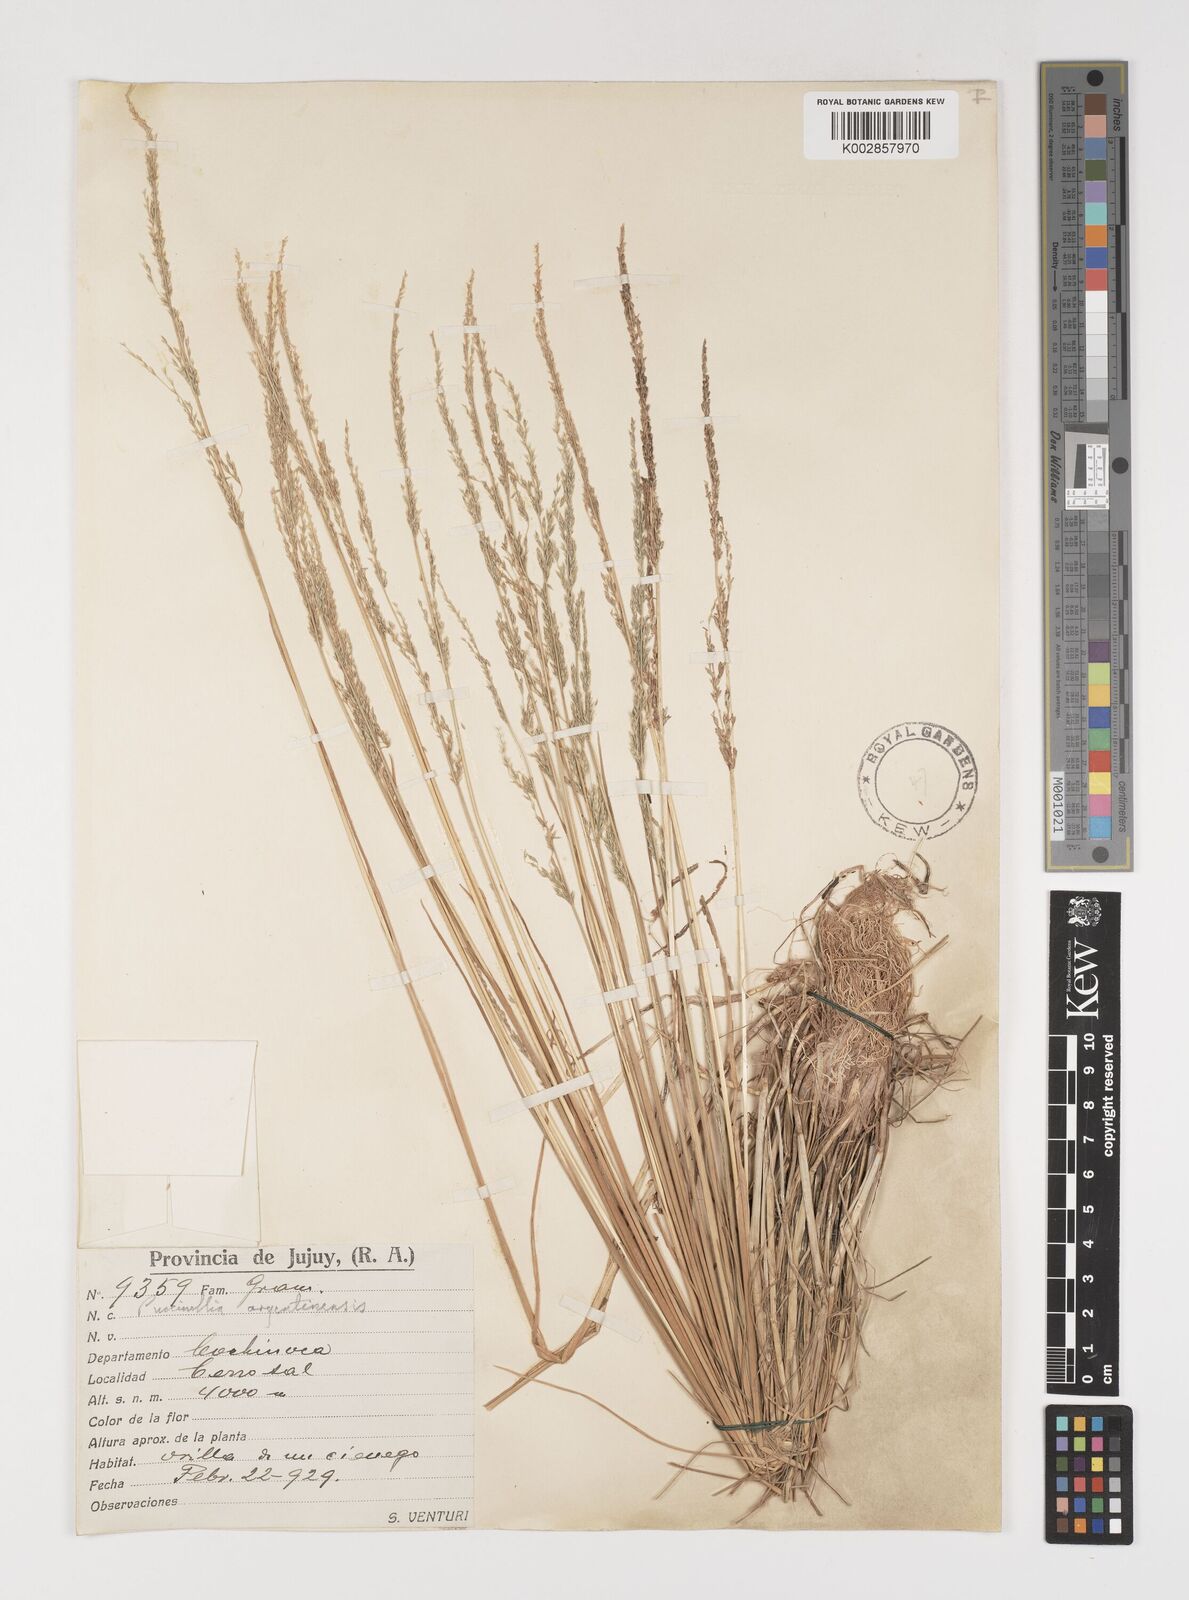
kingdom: Plantae
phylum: Tracheophyta
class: Liliopsida
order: Poales
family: Poaceae
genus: Puccinellia
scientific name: Puccinellia argentinensis
